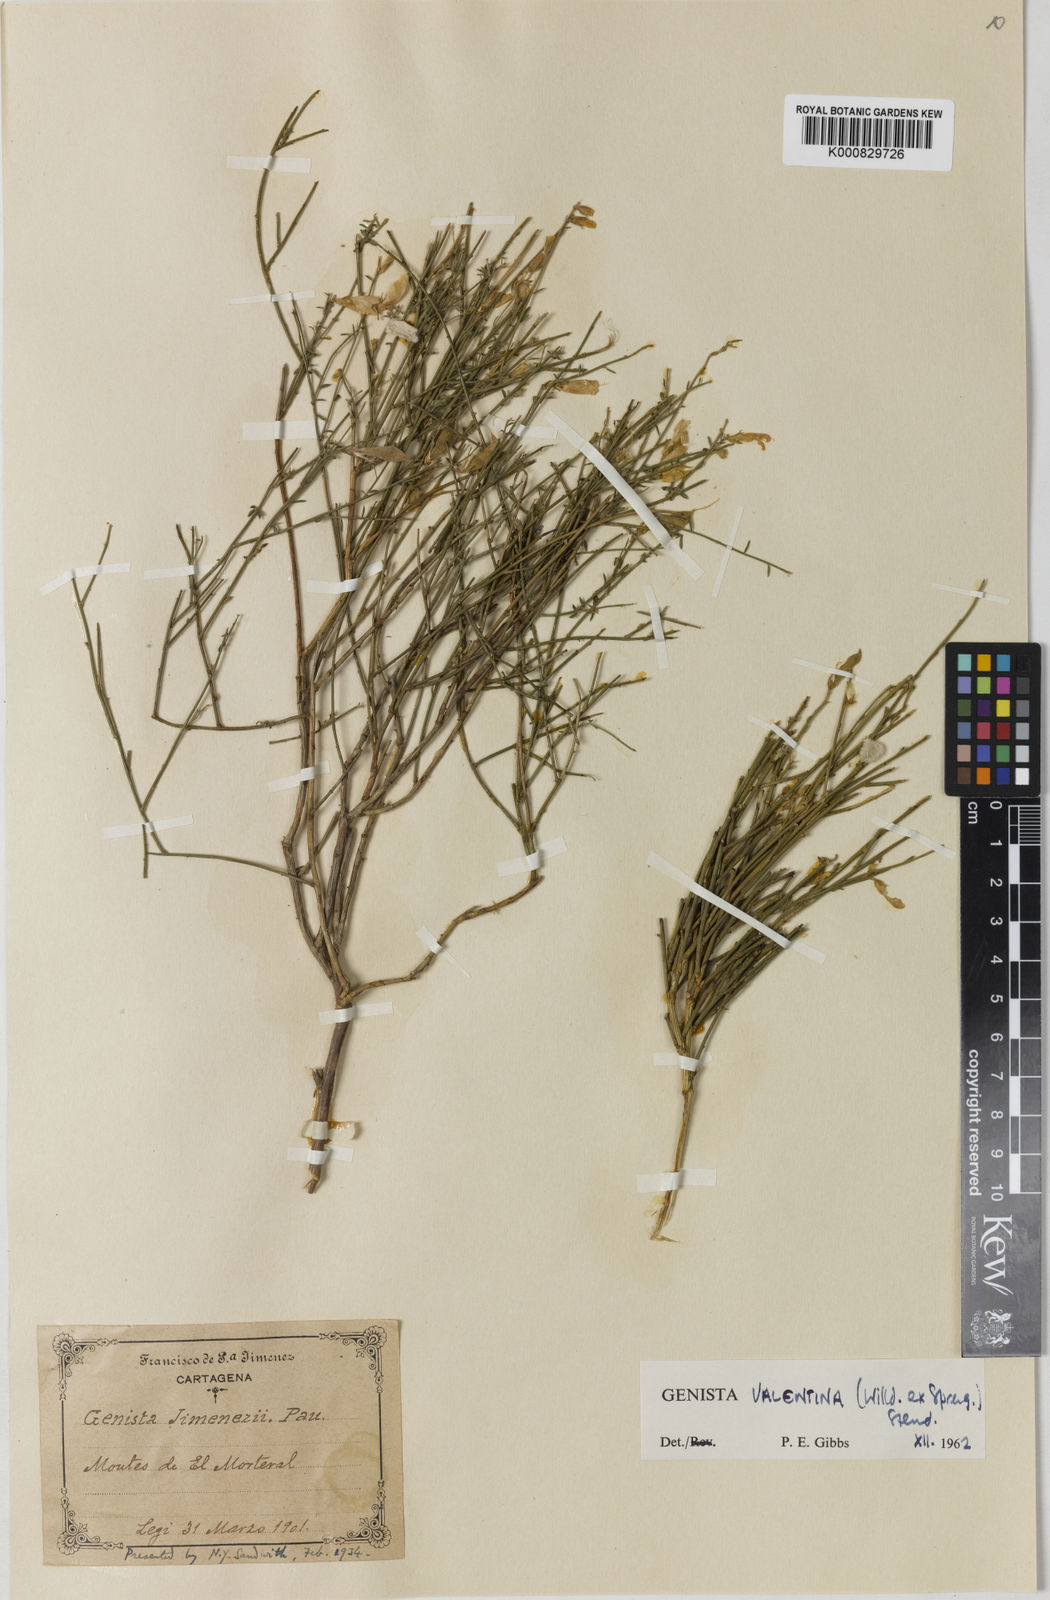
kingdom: Plantae
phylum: Tracheophyta
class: Magnoliopsida
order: Fabales
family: Fabaceae
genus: Genista
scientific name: Genista
